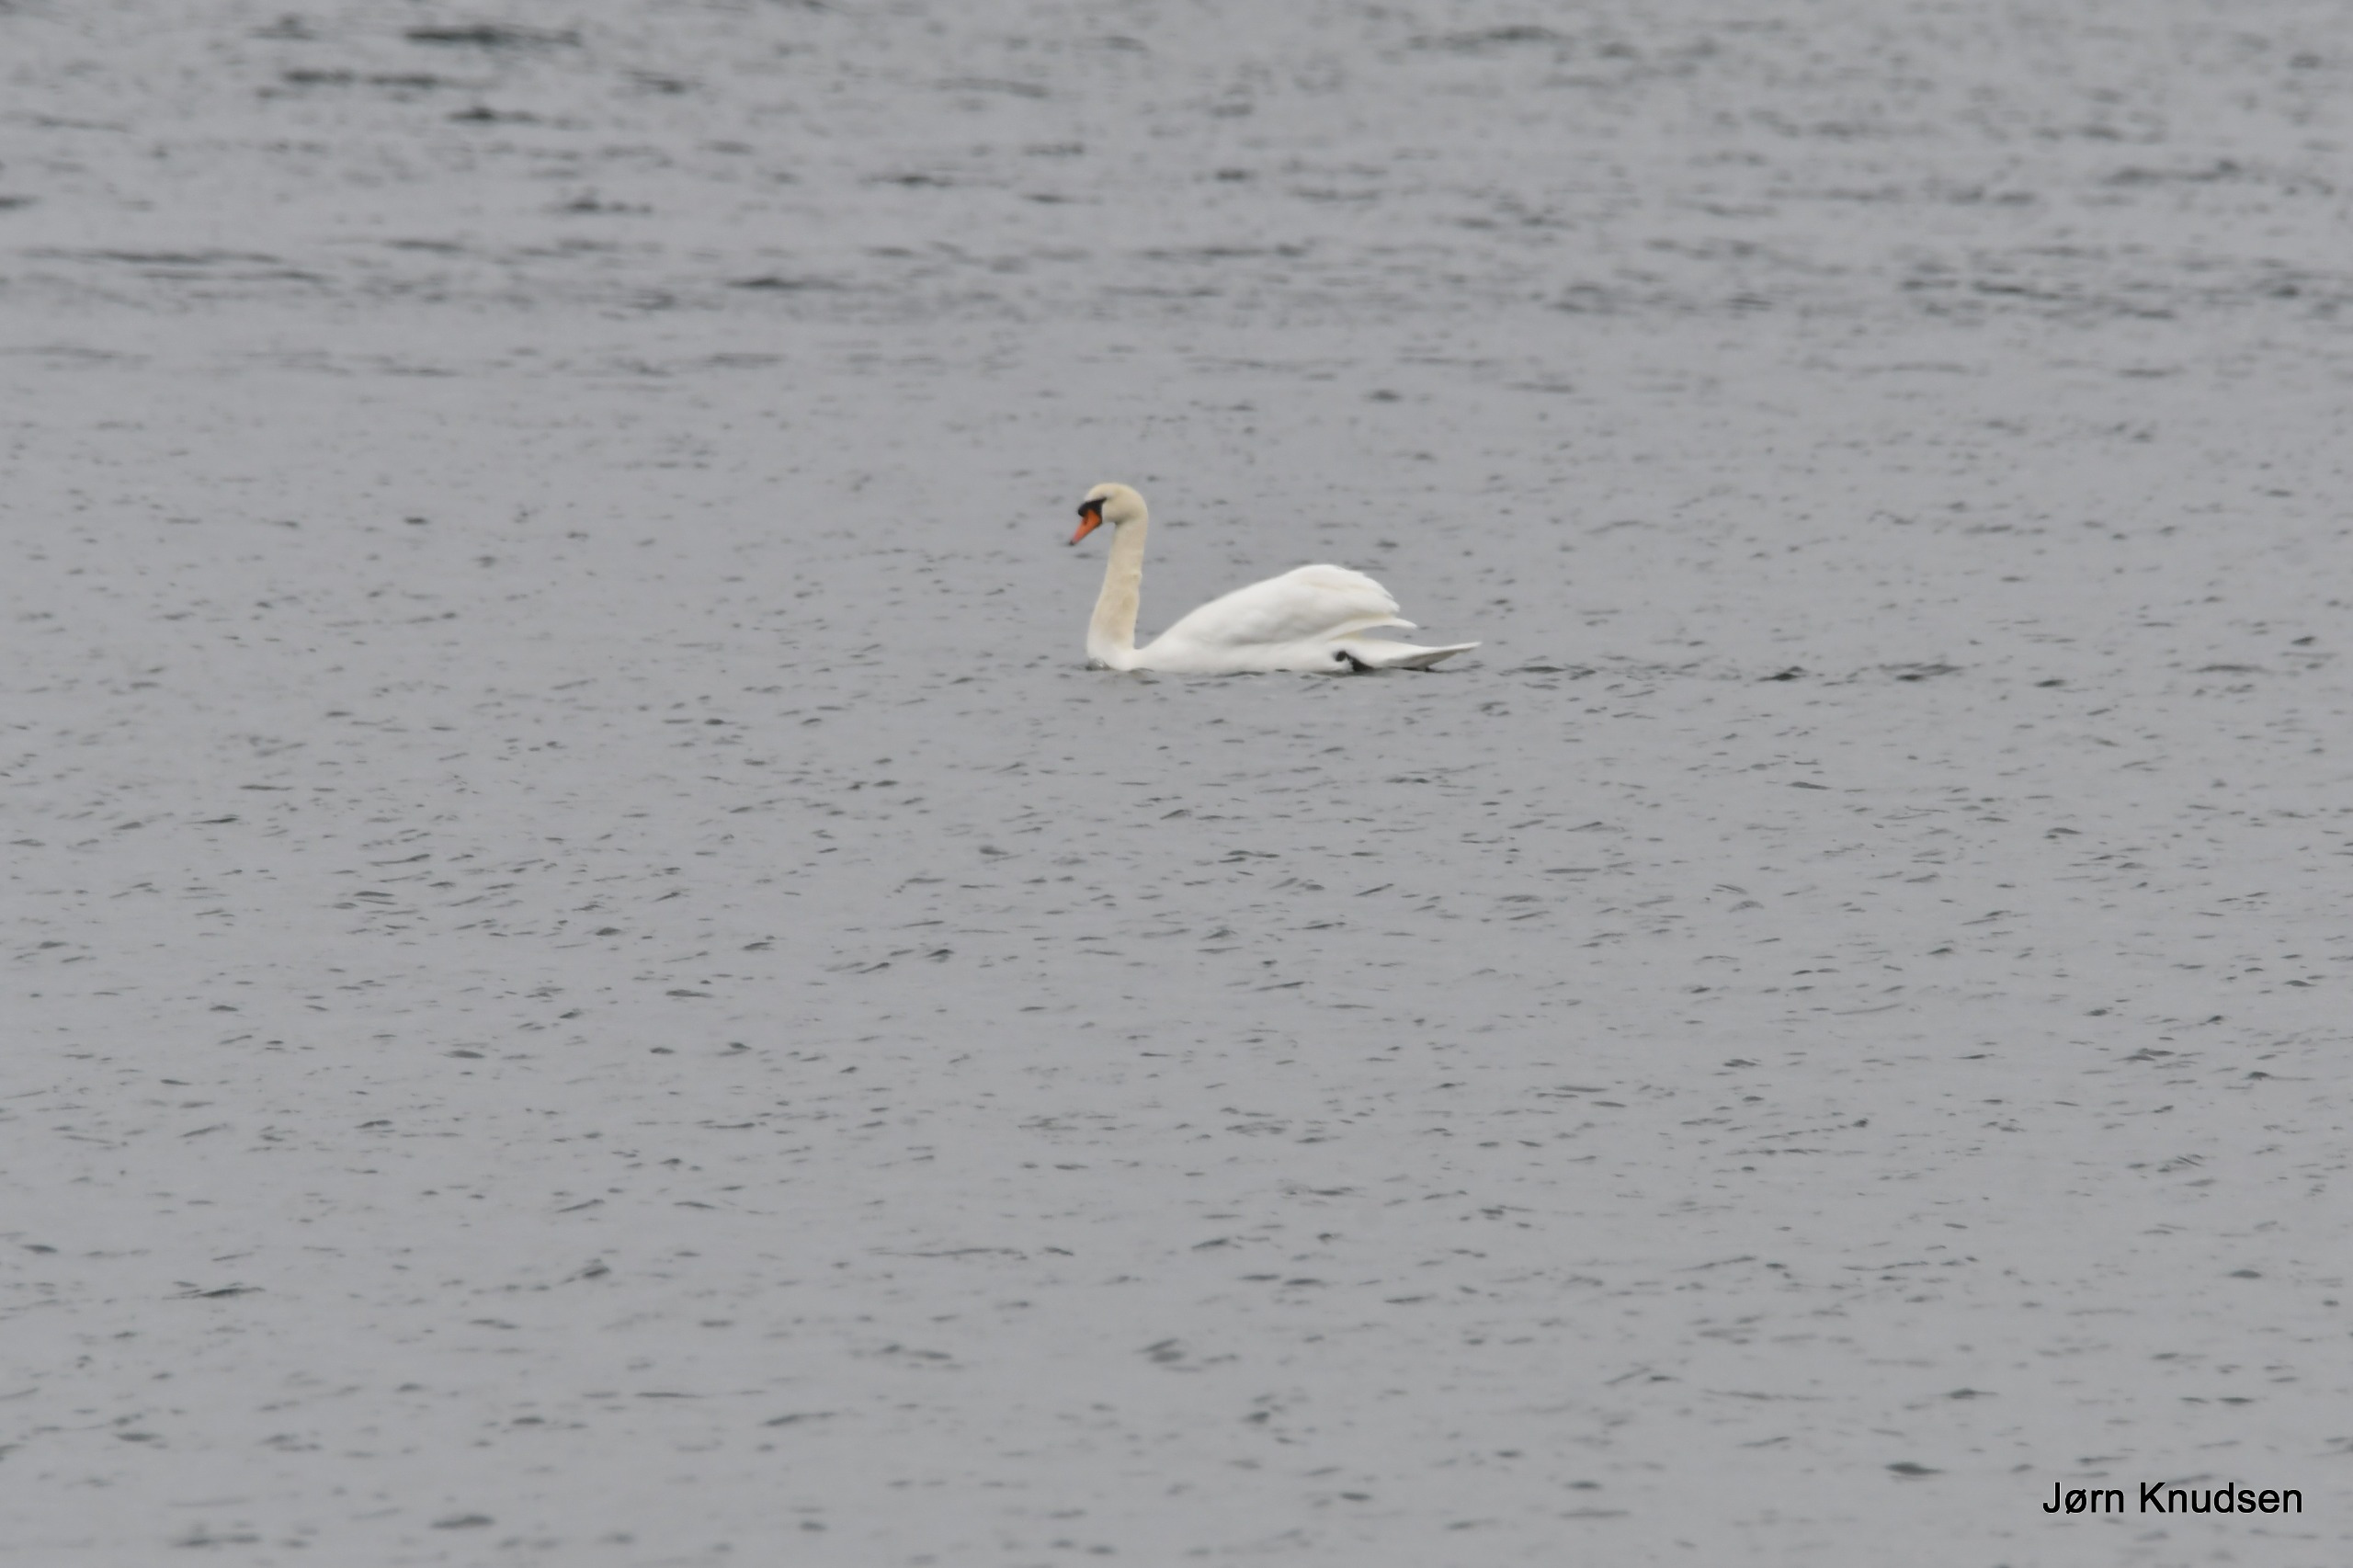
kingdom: Animalia
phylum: Chordata
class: Aves
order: Anseriformes
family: Anatidae
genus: Cygnus
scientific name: Cygnus olor
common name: Knopsvane
